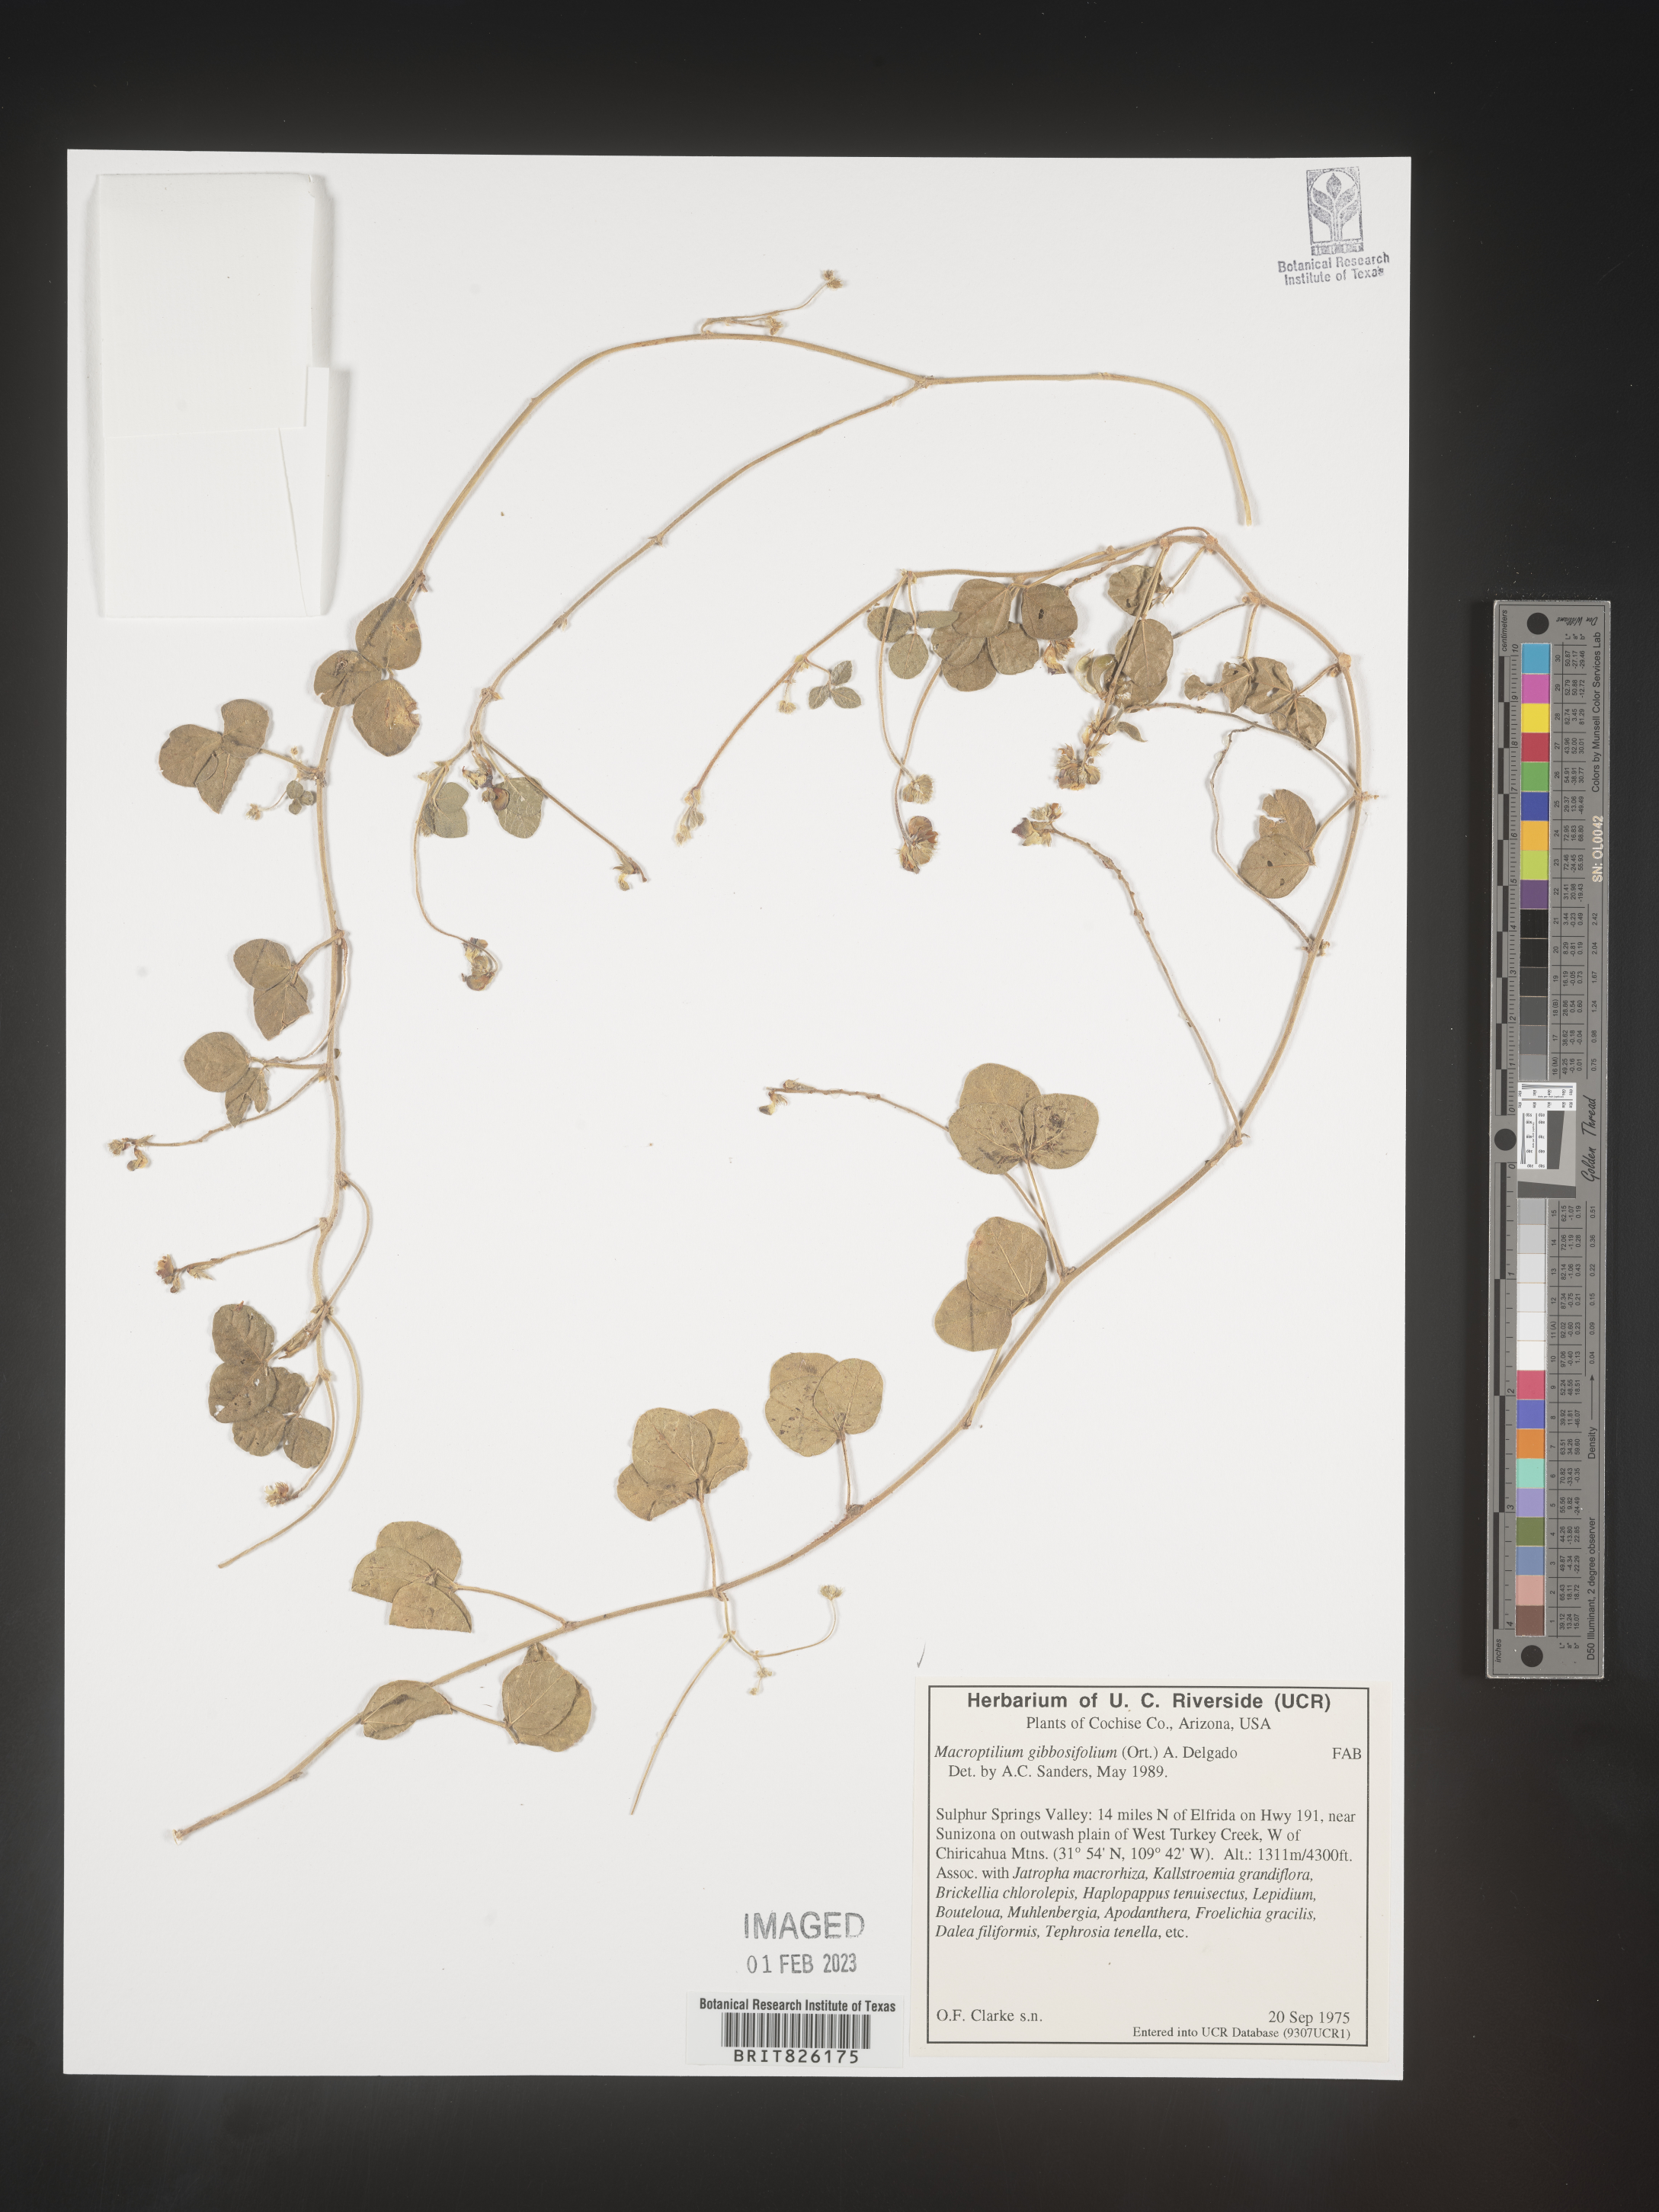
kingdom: Plantae
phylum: Tracheophyta
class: Magnoliopsida
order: Fabales
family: Fabaceae
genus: Macroptilium
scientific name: Macroptilium
